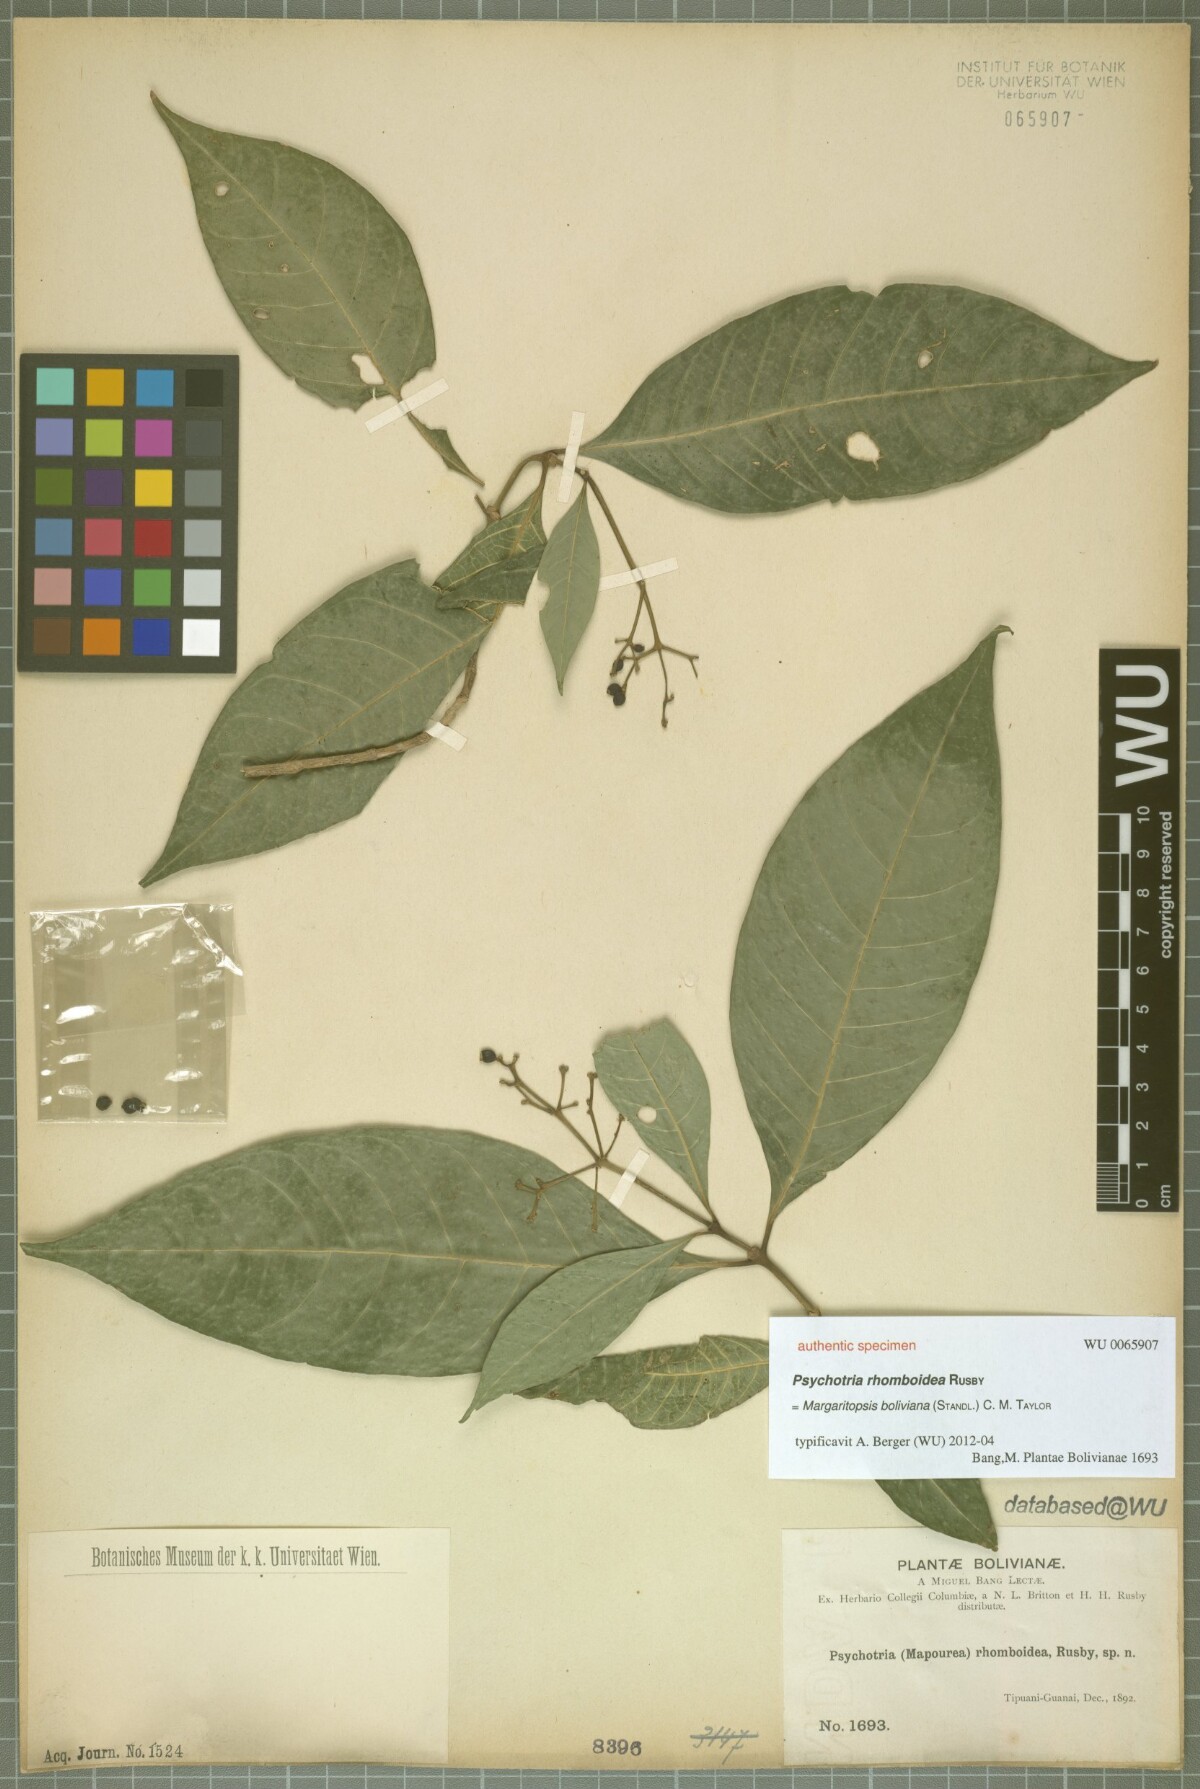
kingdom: Plantae
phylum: Tracheophyta
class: Magnoliopsida
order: Gentianales
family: Rubiaceae
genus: Eumachia
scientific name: Eumachia boliviana
